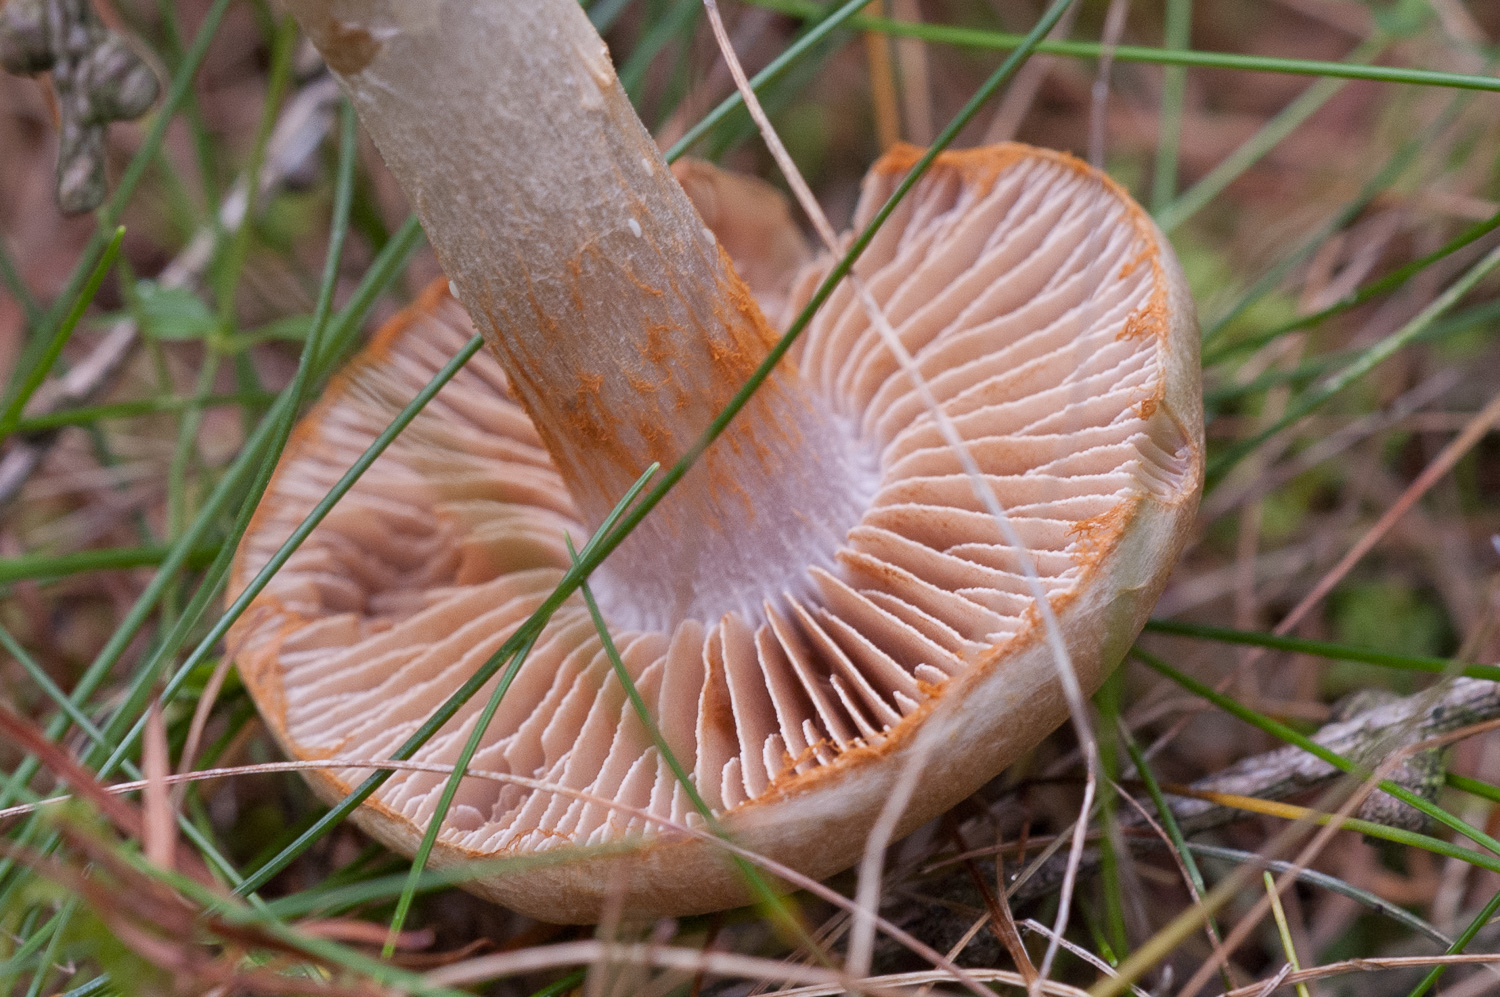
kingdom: Fungi
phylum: Basidiomycota
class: Agaricomycetes
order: Agaricales
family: Cortinariaceae
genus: Cortinarius
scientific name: Cortinarius
